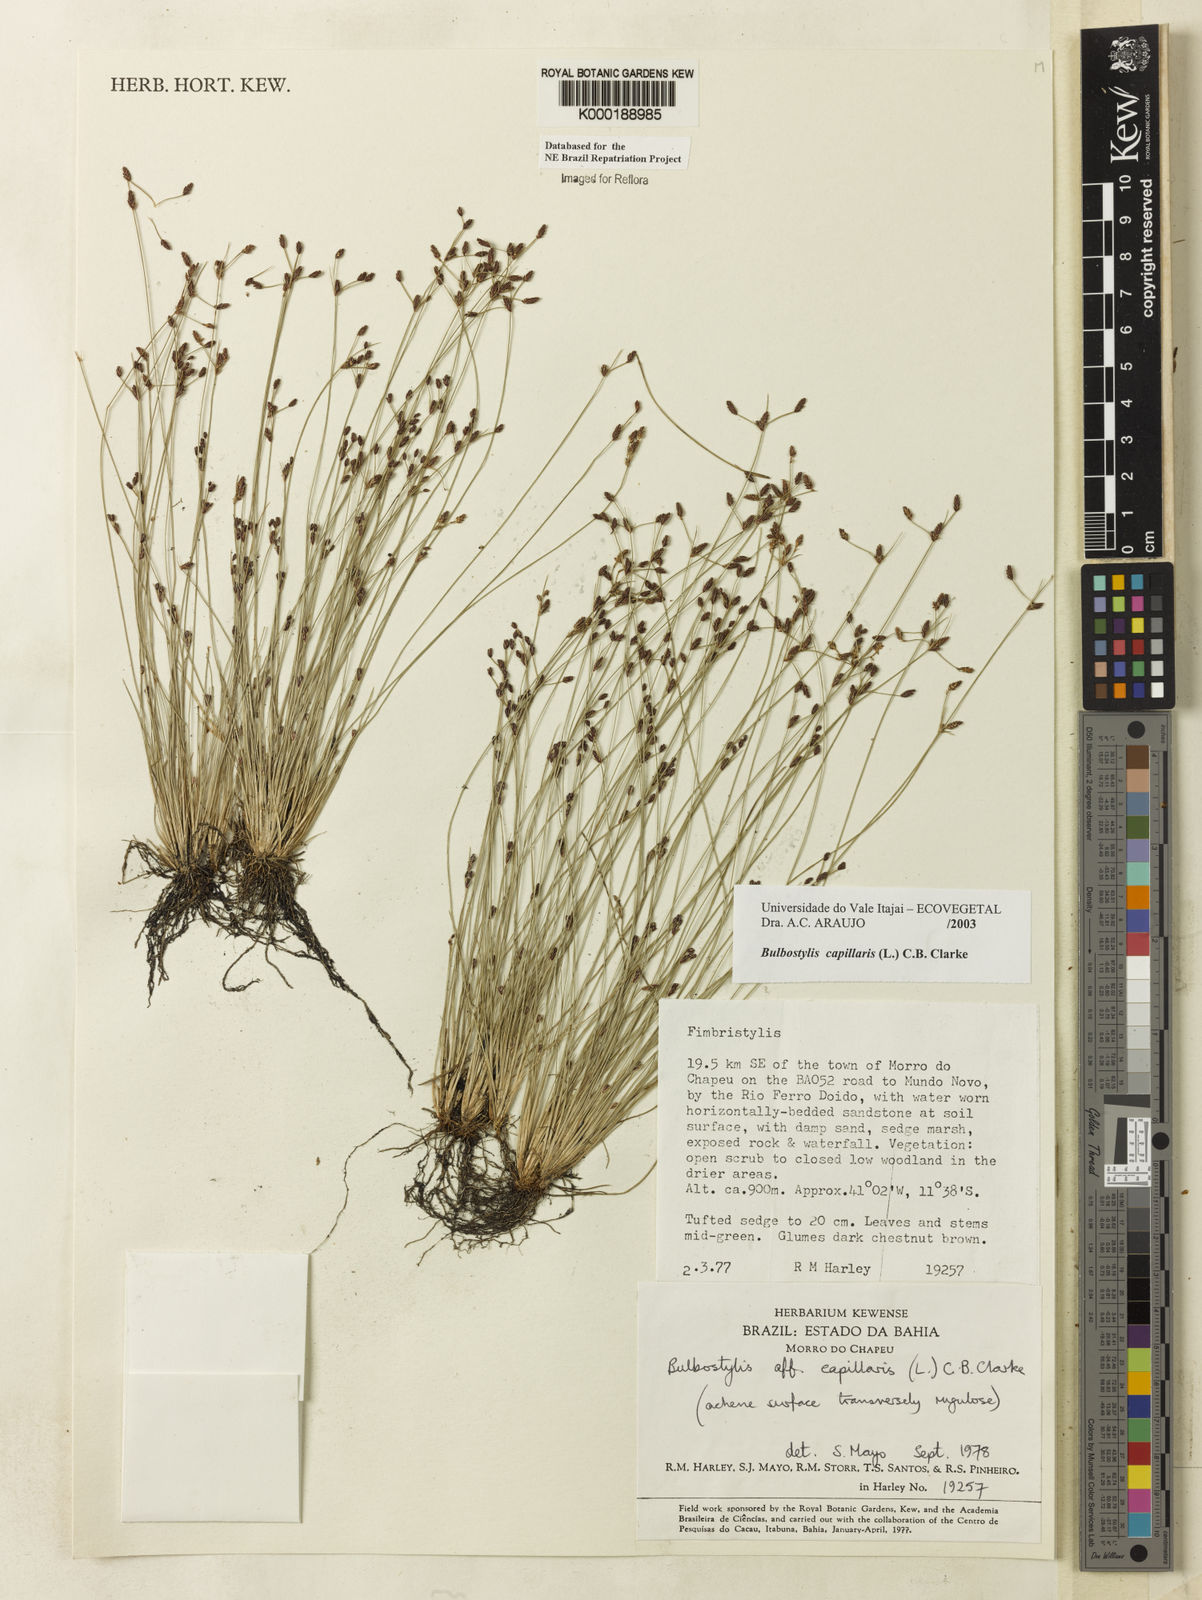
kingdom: Plantae
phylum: Tracheophyta
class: Liliopsida
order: Poales
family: Cyperaceae
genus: Bulbostylis
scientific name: Bulbostylis capillaris
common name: Densetuft hairsedge
